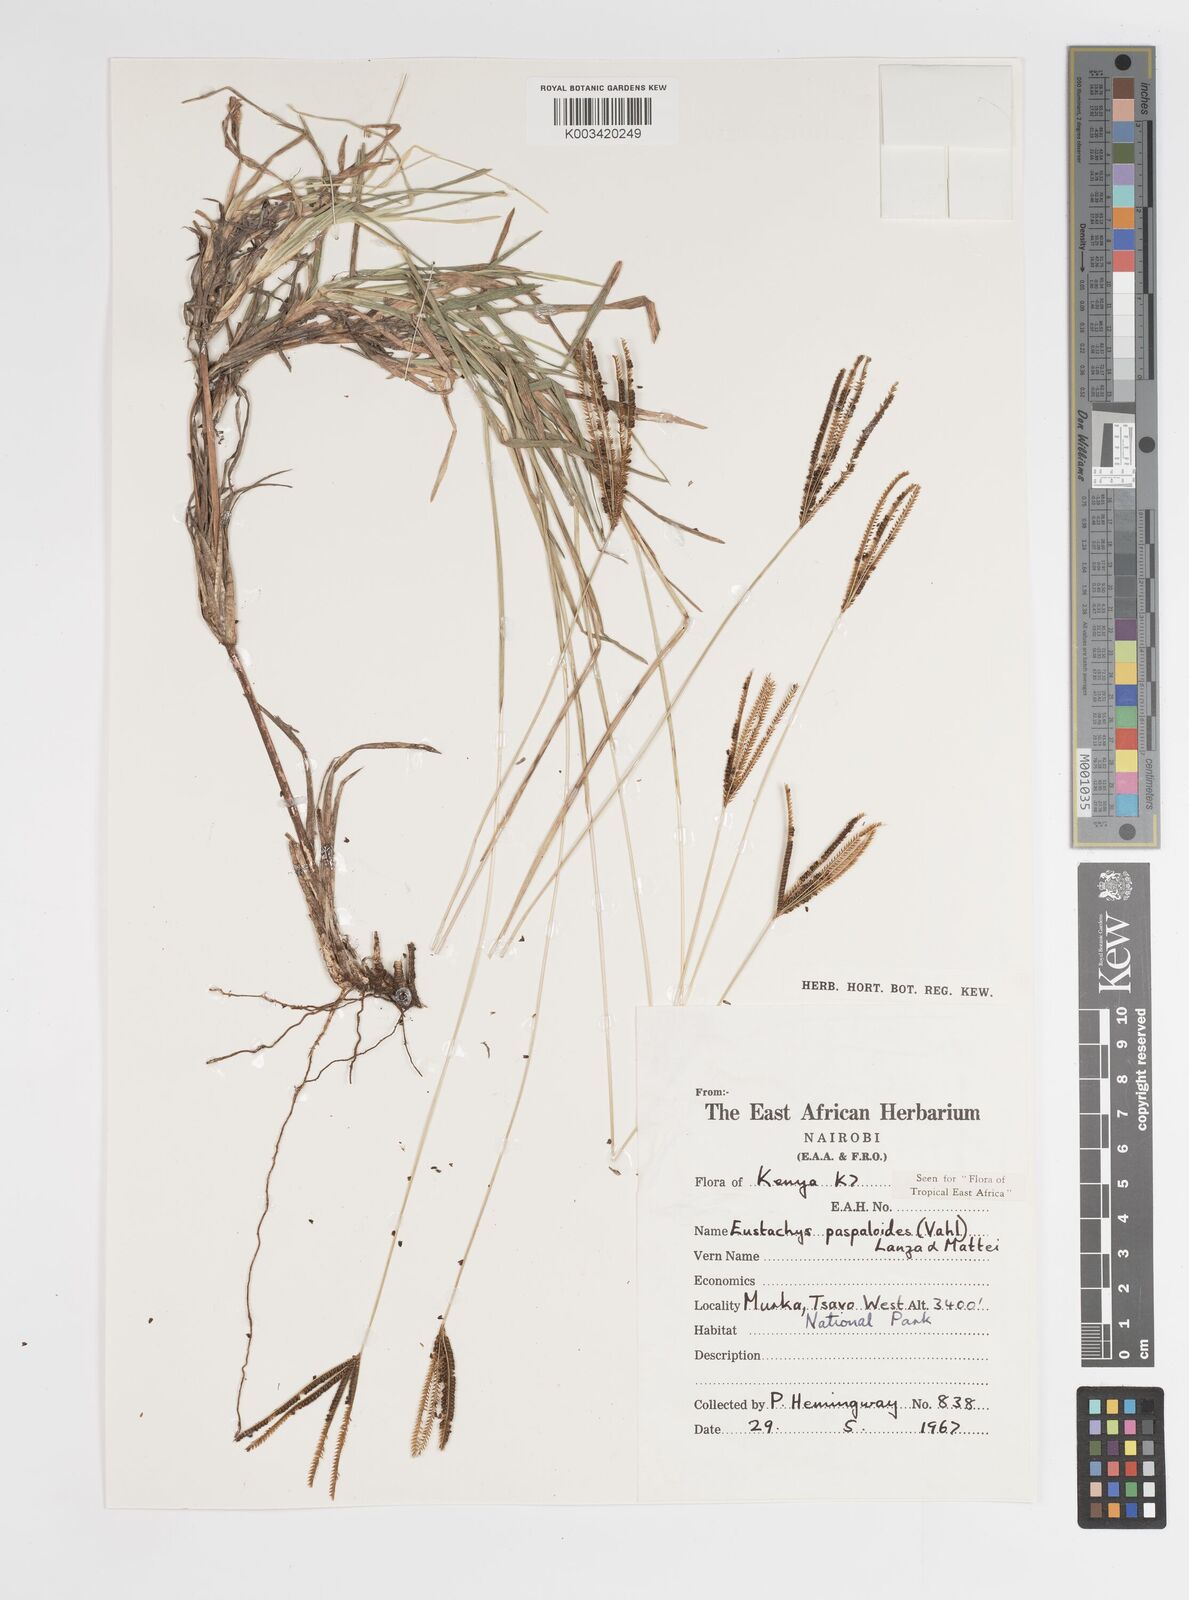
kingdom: Plantae
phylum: Tracheophyta
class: Liliopsida
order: Poales
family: Poaceae
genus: Eustachys
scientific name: Eustachys paspaloides
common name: Caribbean fingergrass
